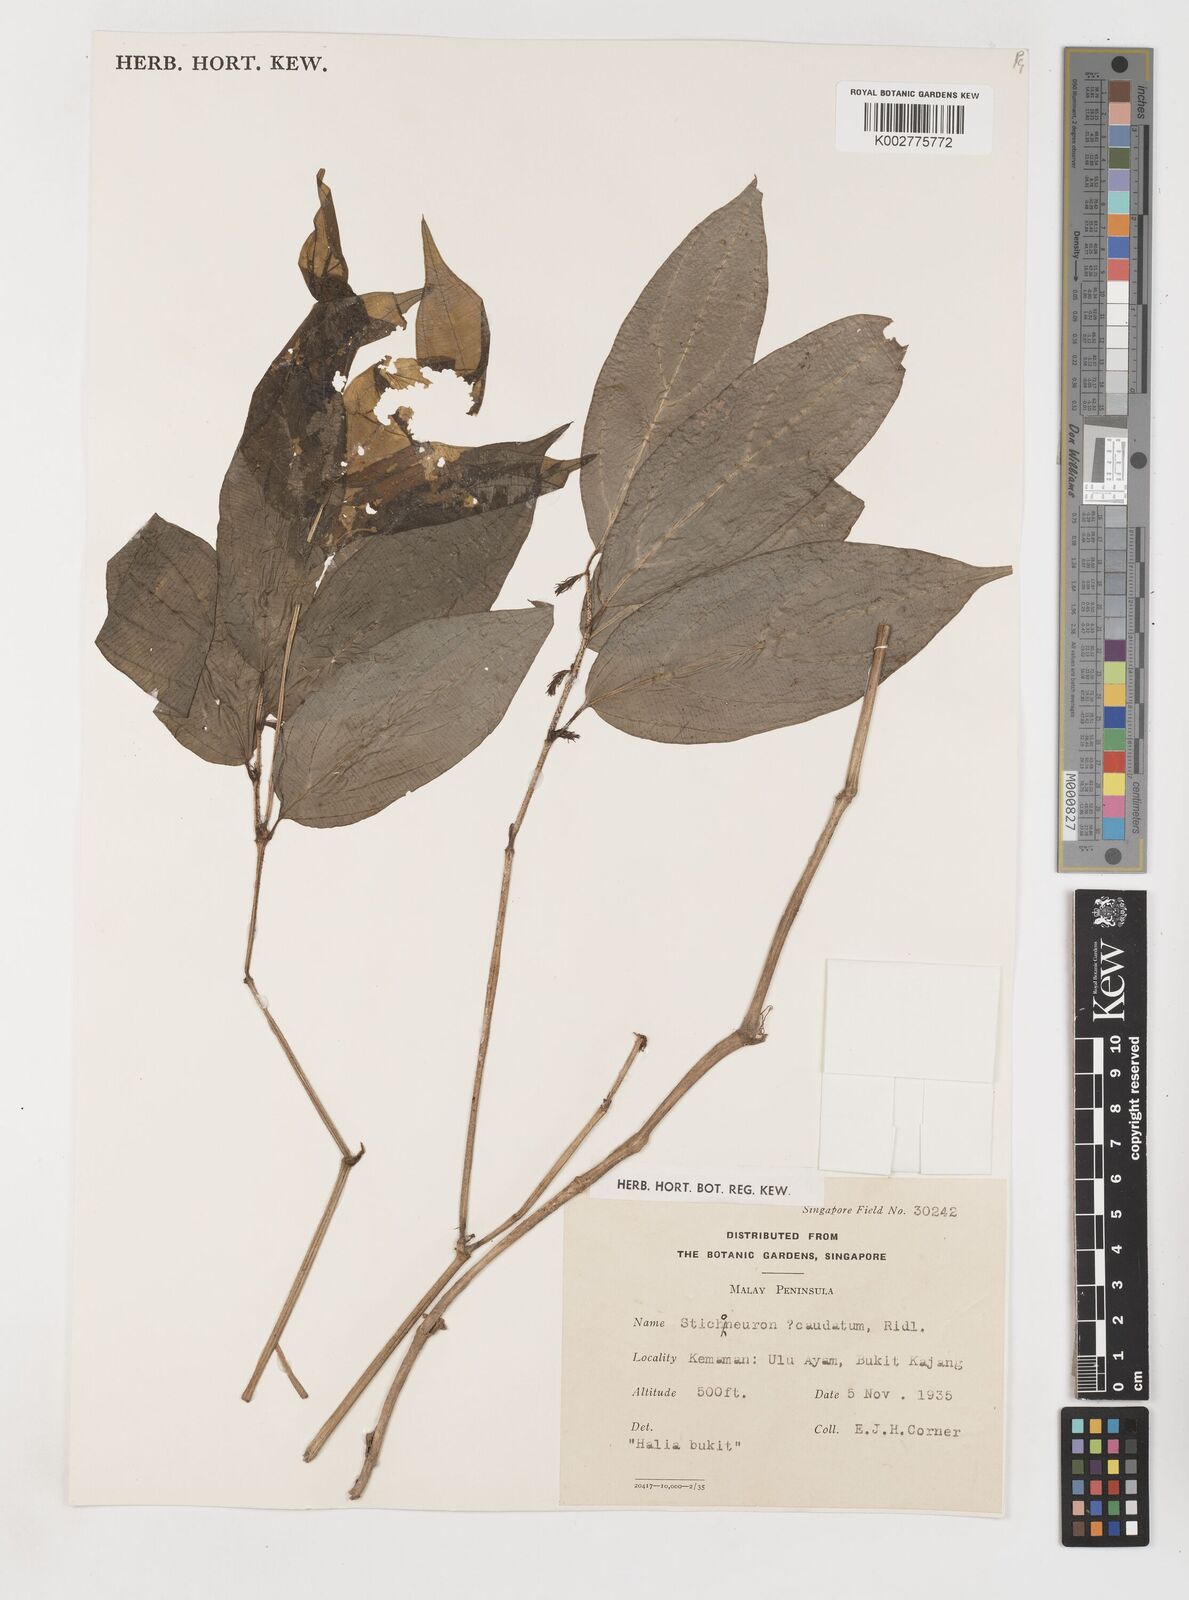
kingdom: Plantae
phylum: Tracheophyta
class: Liliopsida
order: Pandanales
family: Stemonaceae
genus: Stichoneuron
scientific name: Stichoneuron caudatum
